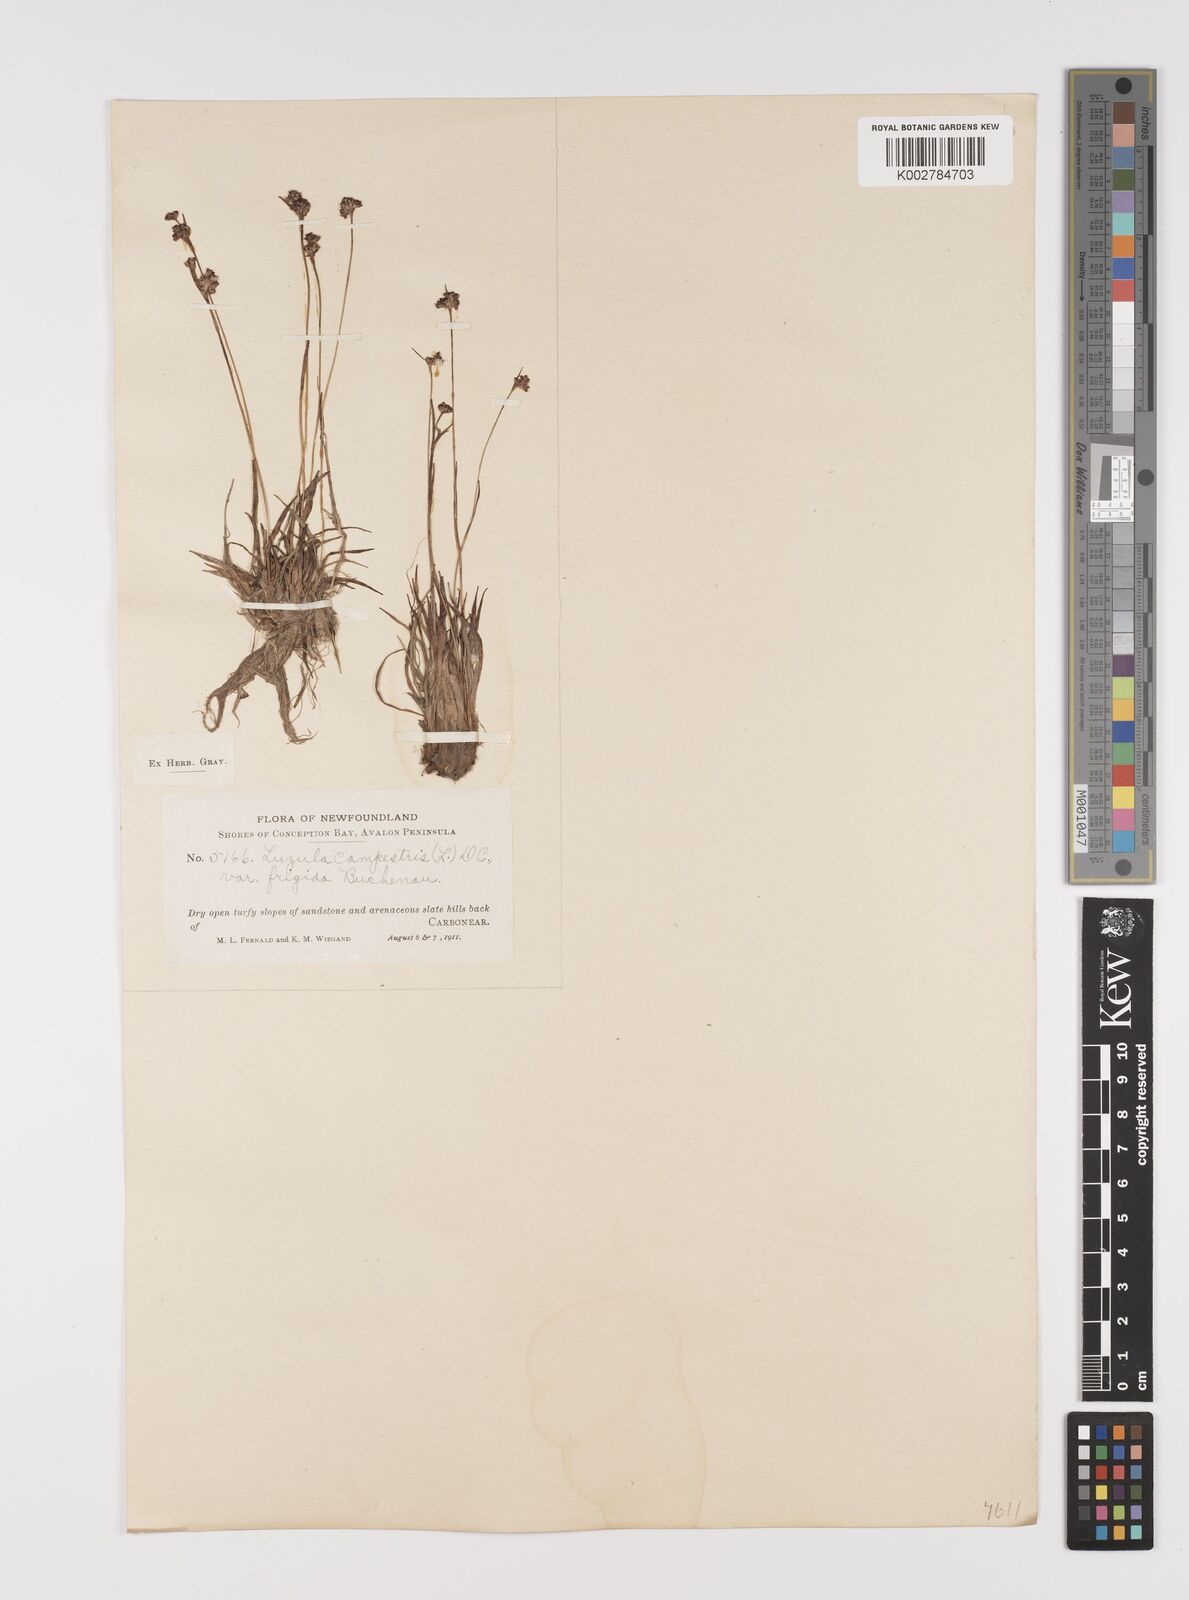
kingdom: Plantae
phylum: Tracheophyta
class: Liliopsida
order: Poales
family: Juncaceae
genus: Luzula
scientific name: Luzula multiflora
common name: Heath wood-rush
